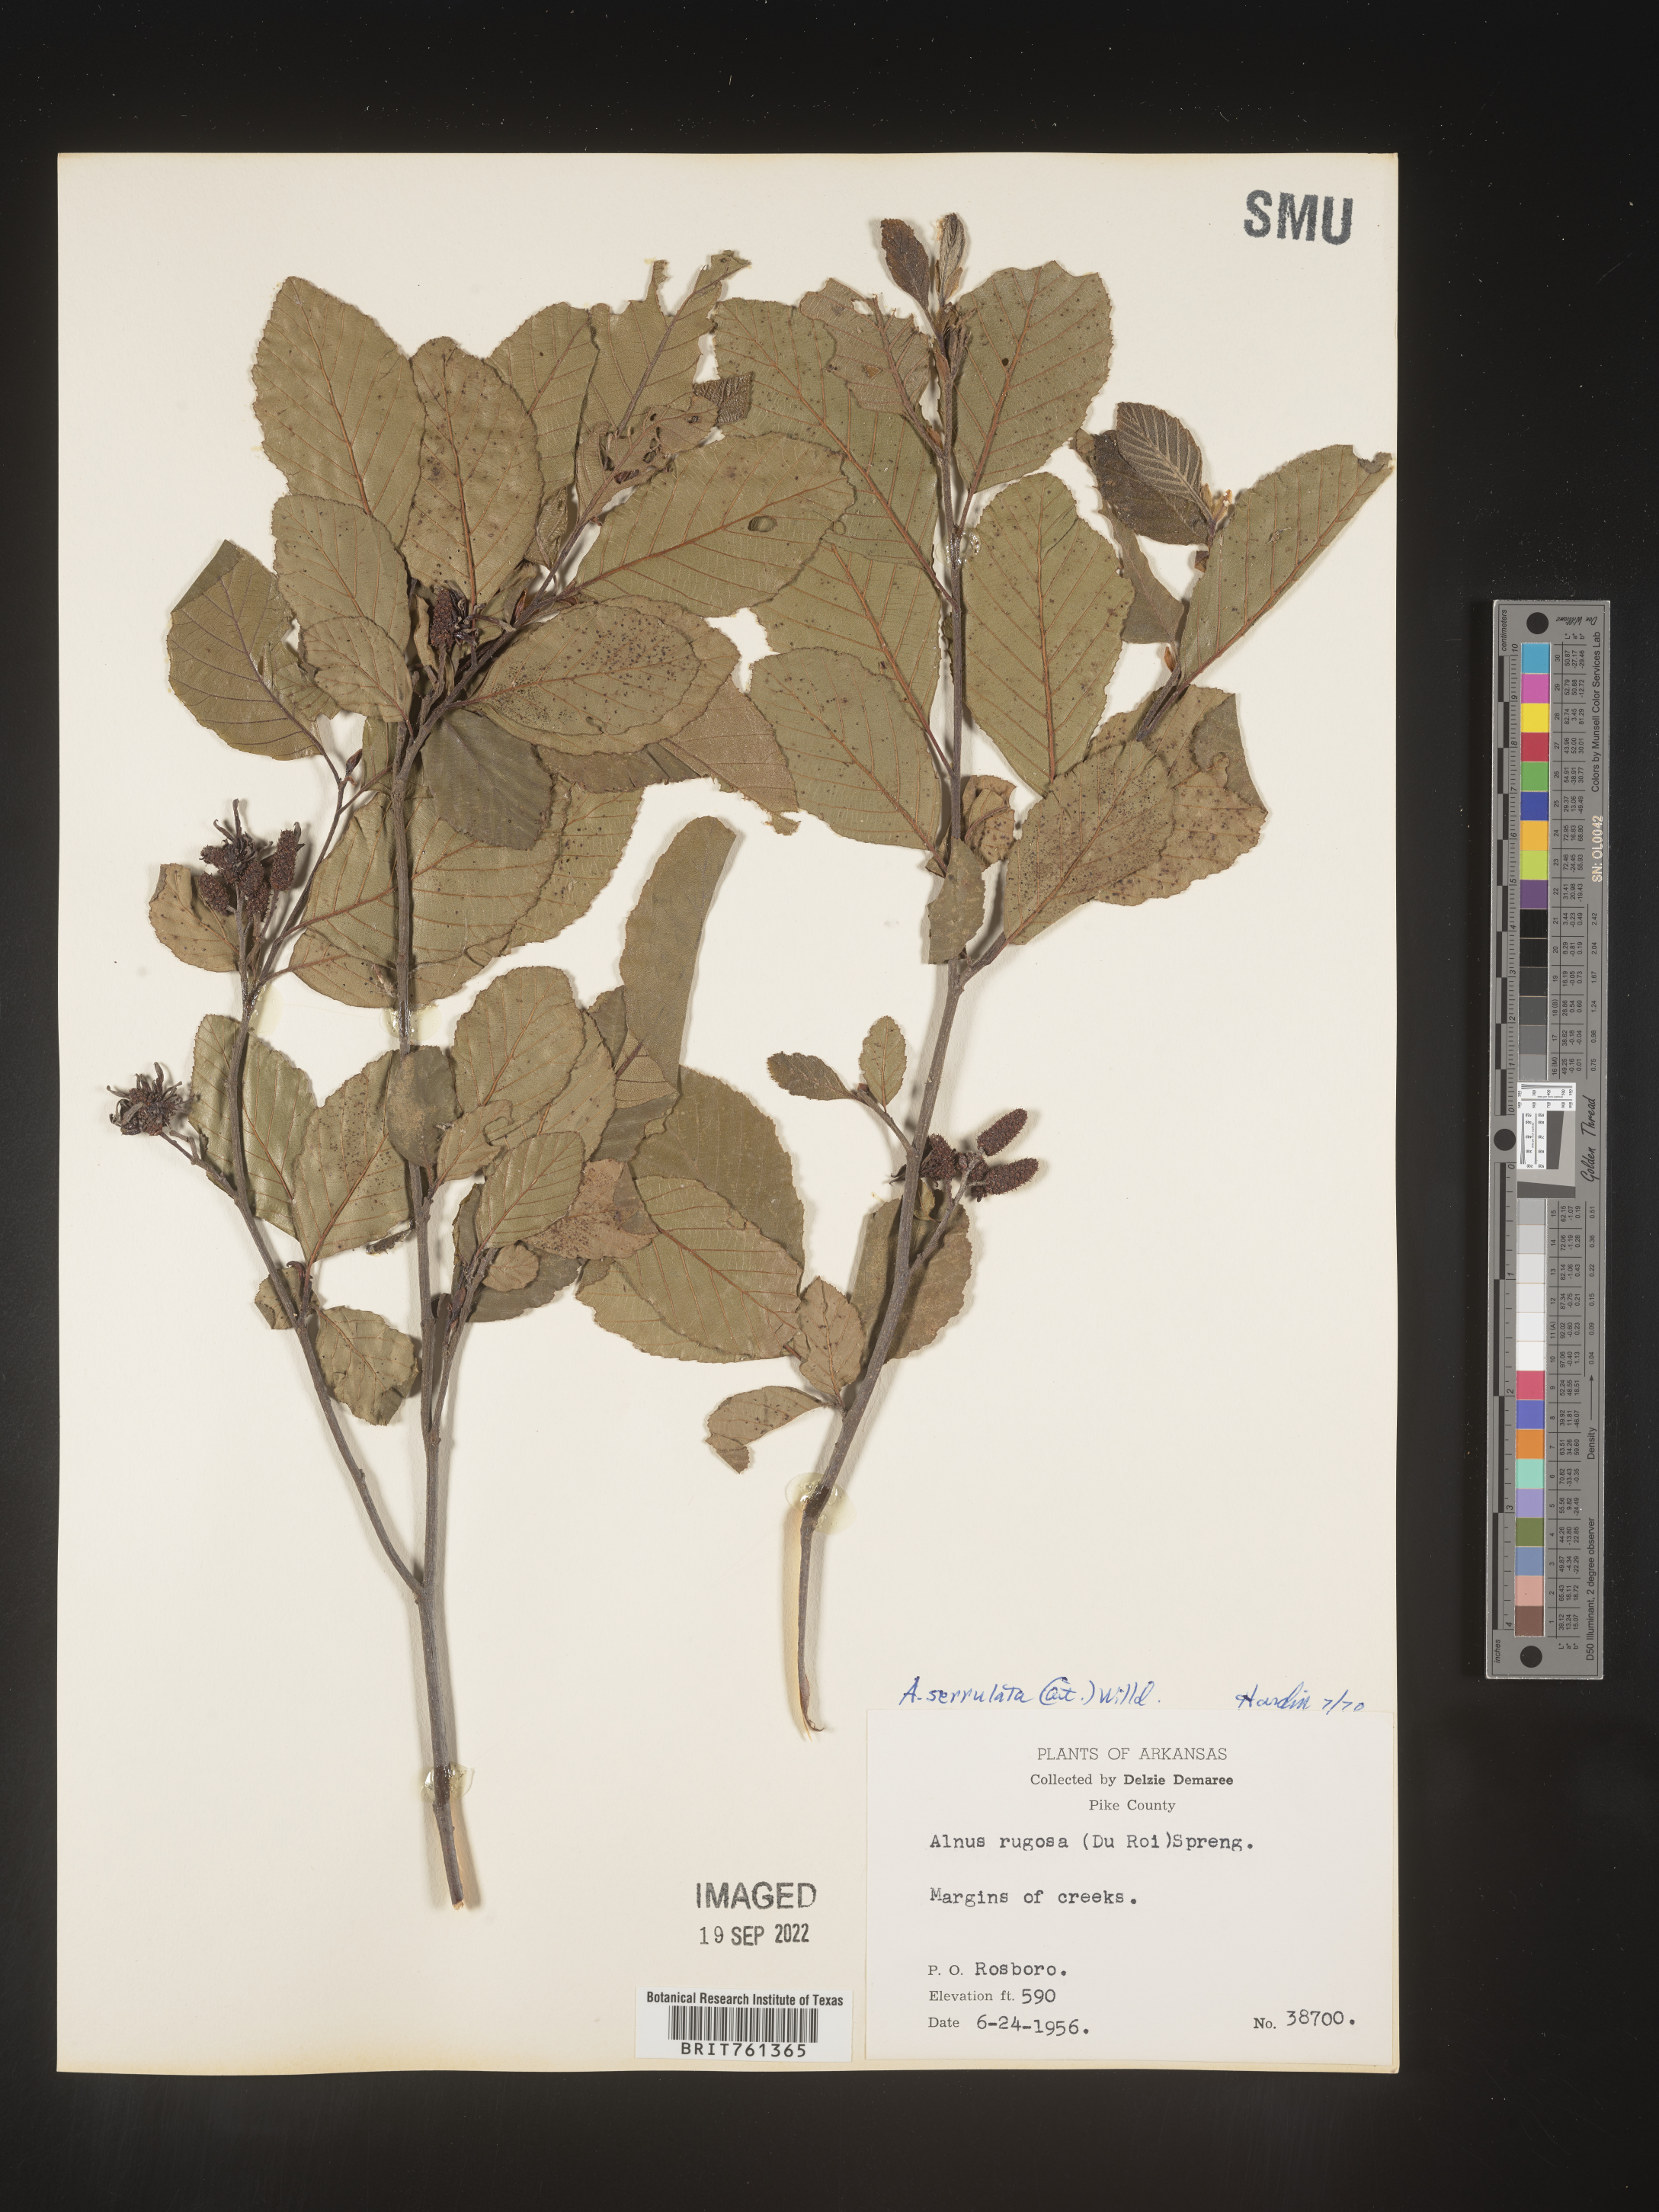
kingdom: Plantae
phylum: Tracheophyta
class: Magnoliopsida
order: Fagales
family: Betulaceae
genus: Alnus
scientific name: Alnus serrulata
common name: Hazel alder
